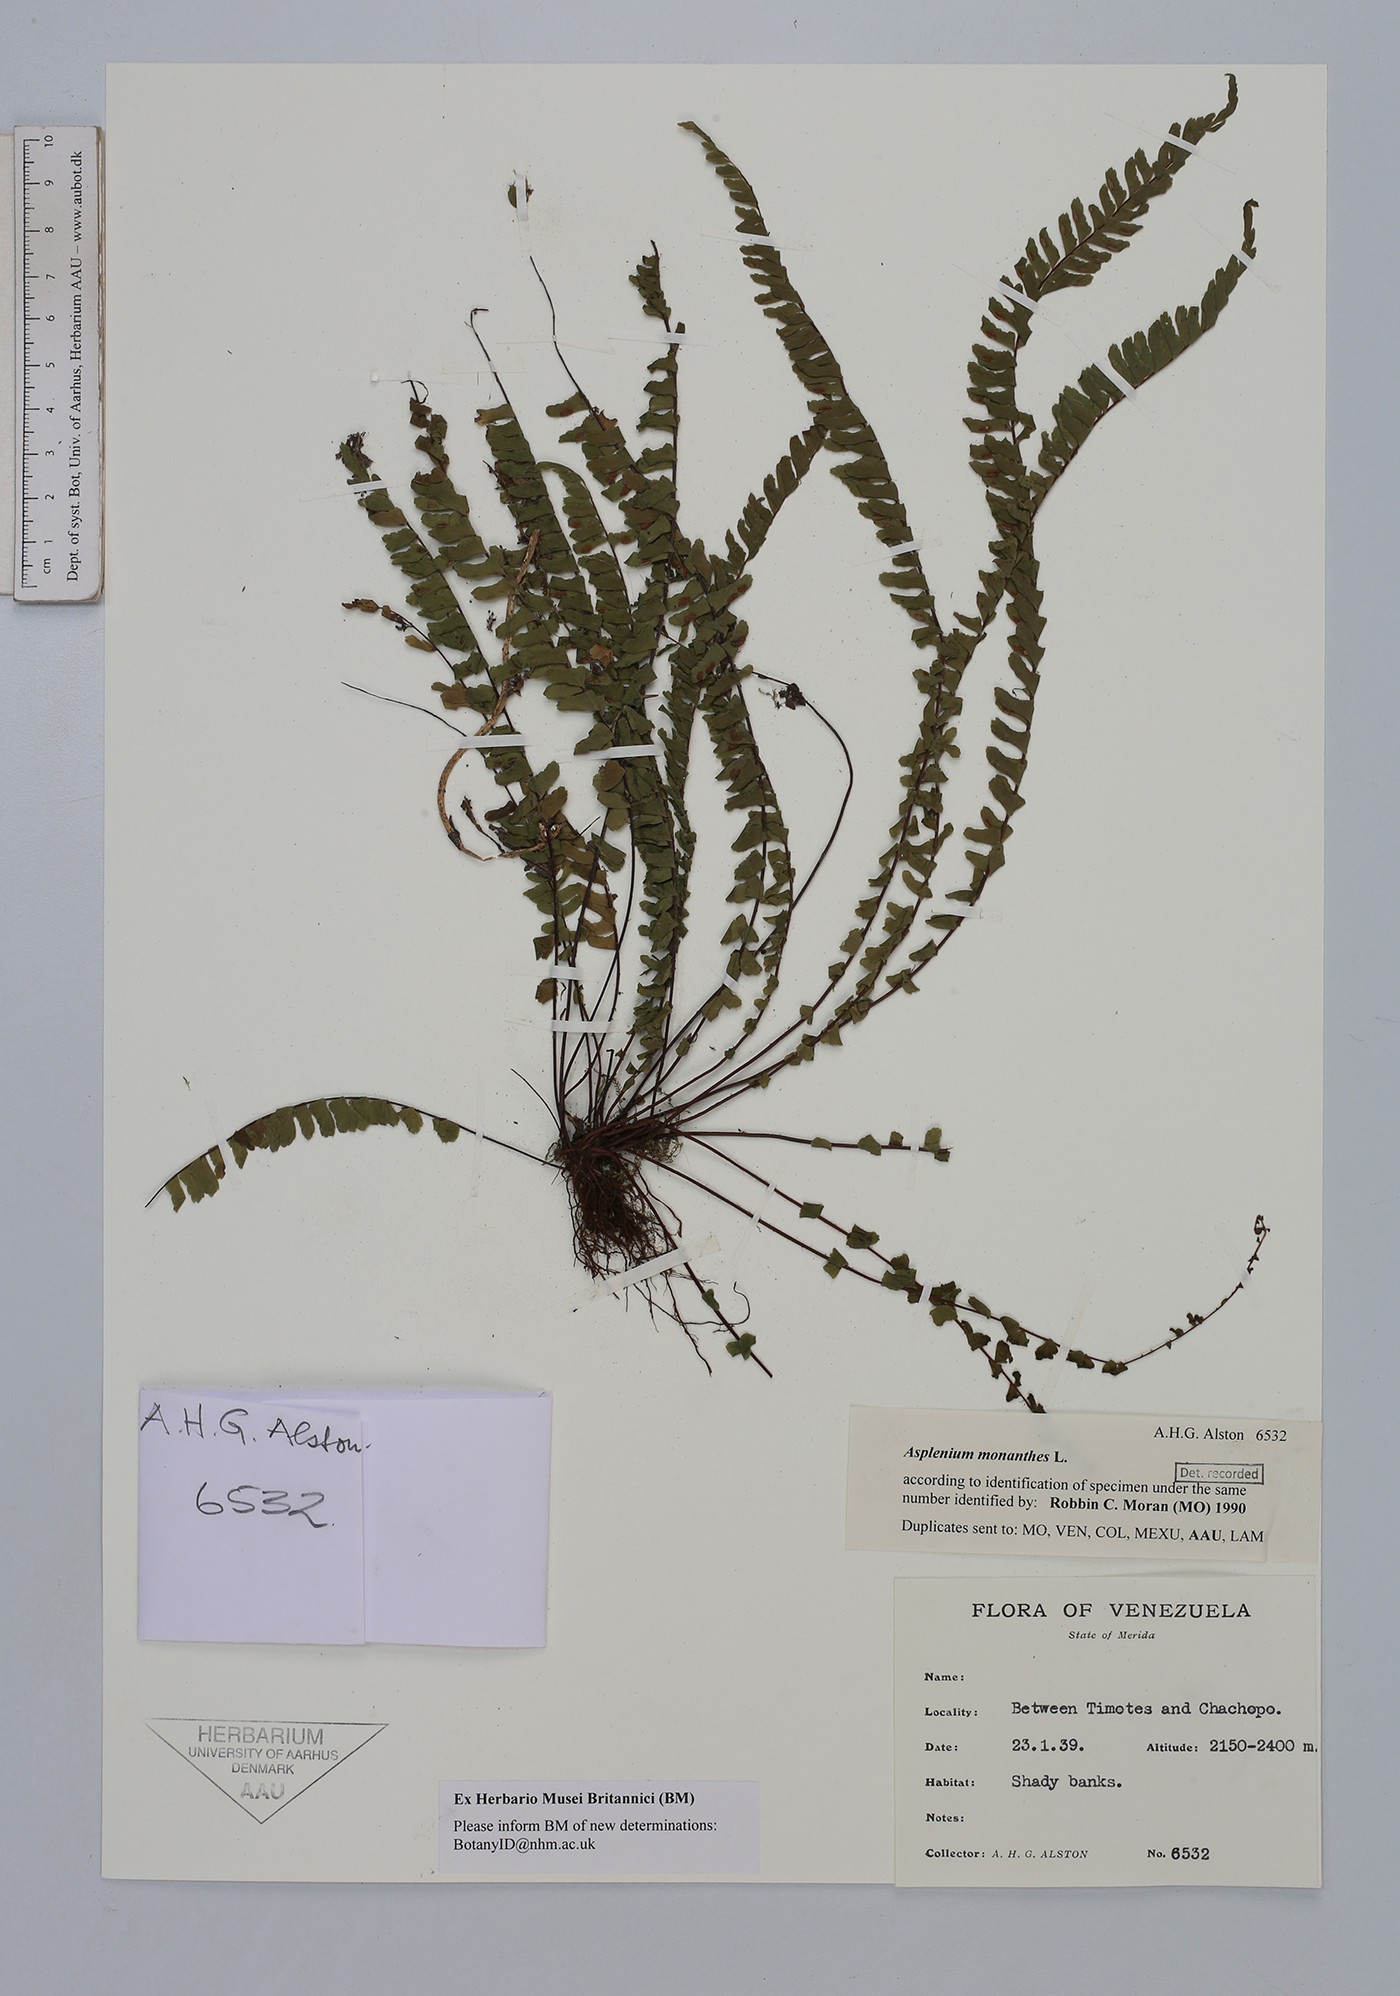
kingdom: Plantae
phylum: Tracheophyta
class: Polypodiopsida
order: Polypodiales
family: Aspleniaceae
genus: Asplenium
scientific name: Asplenium monanthes
